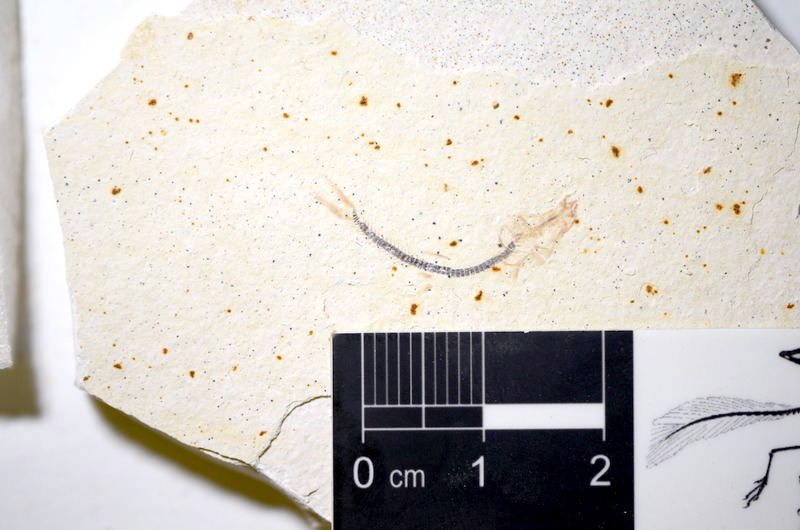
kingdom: Animalia
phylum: Chordata
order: Salmoniformes
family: Orthogonikleithridae
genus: Orthogonikleithrus
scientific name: Orthogonikleithrus hoelli
